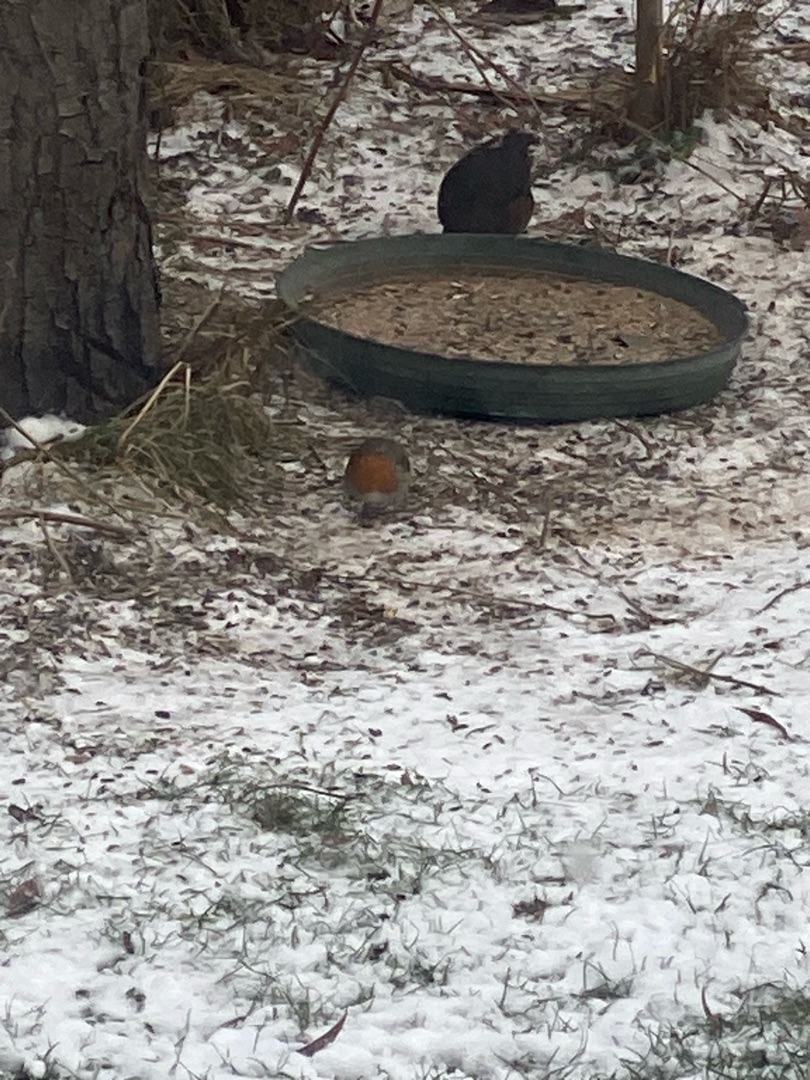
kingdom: Animalia
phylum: Chordata
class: Aves
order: Passeriformes
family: Muscicapidae
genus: Erithacus
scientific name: Erithacus rubecula
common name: Rødhals/rødkælk
